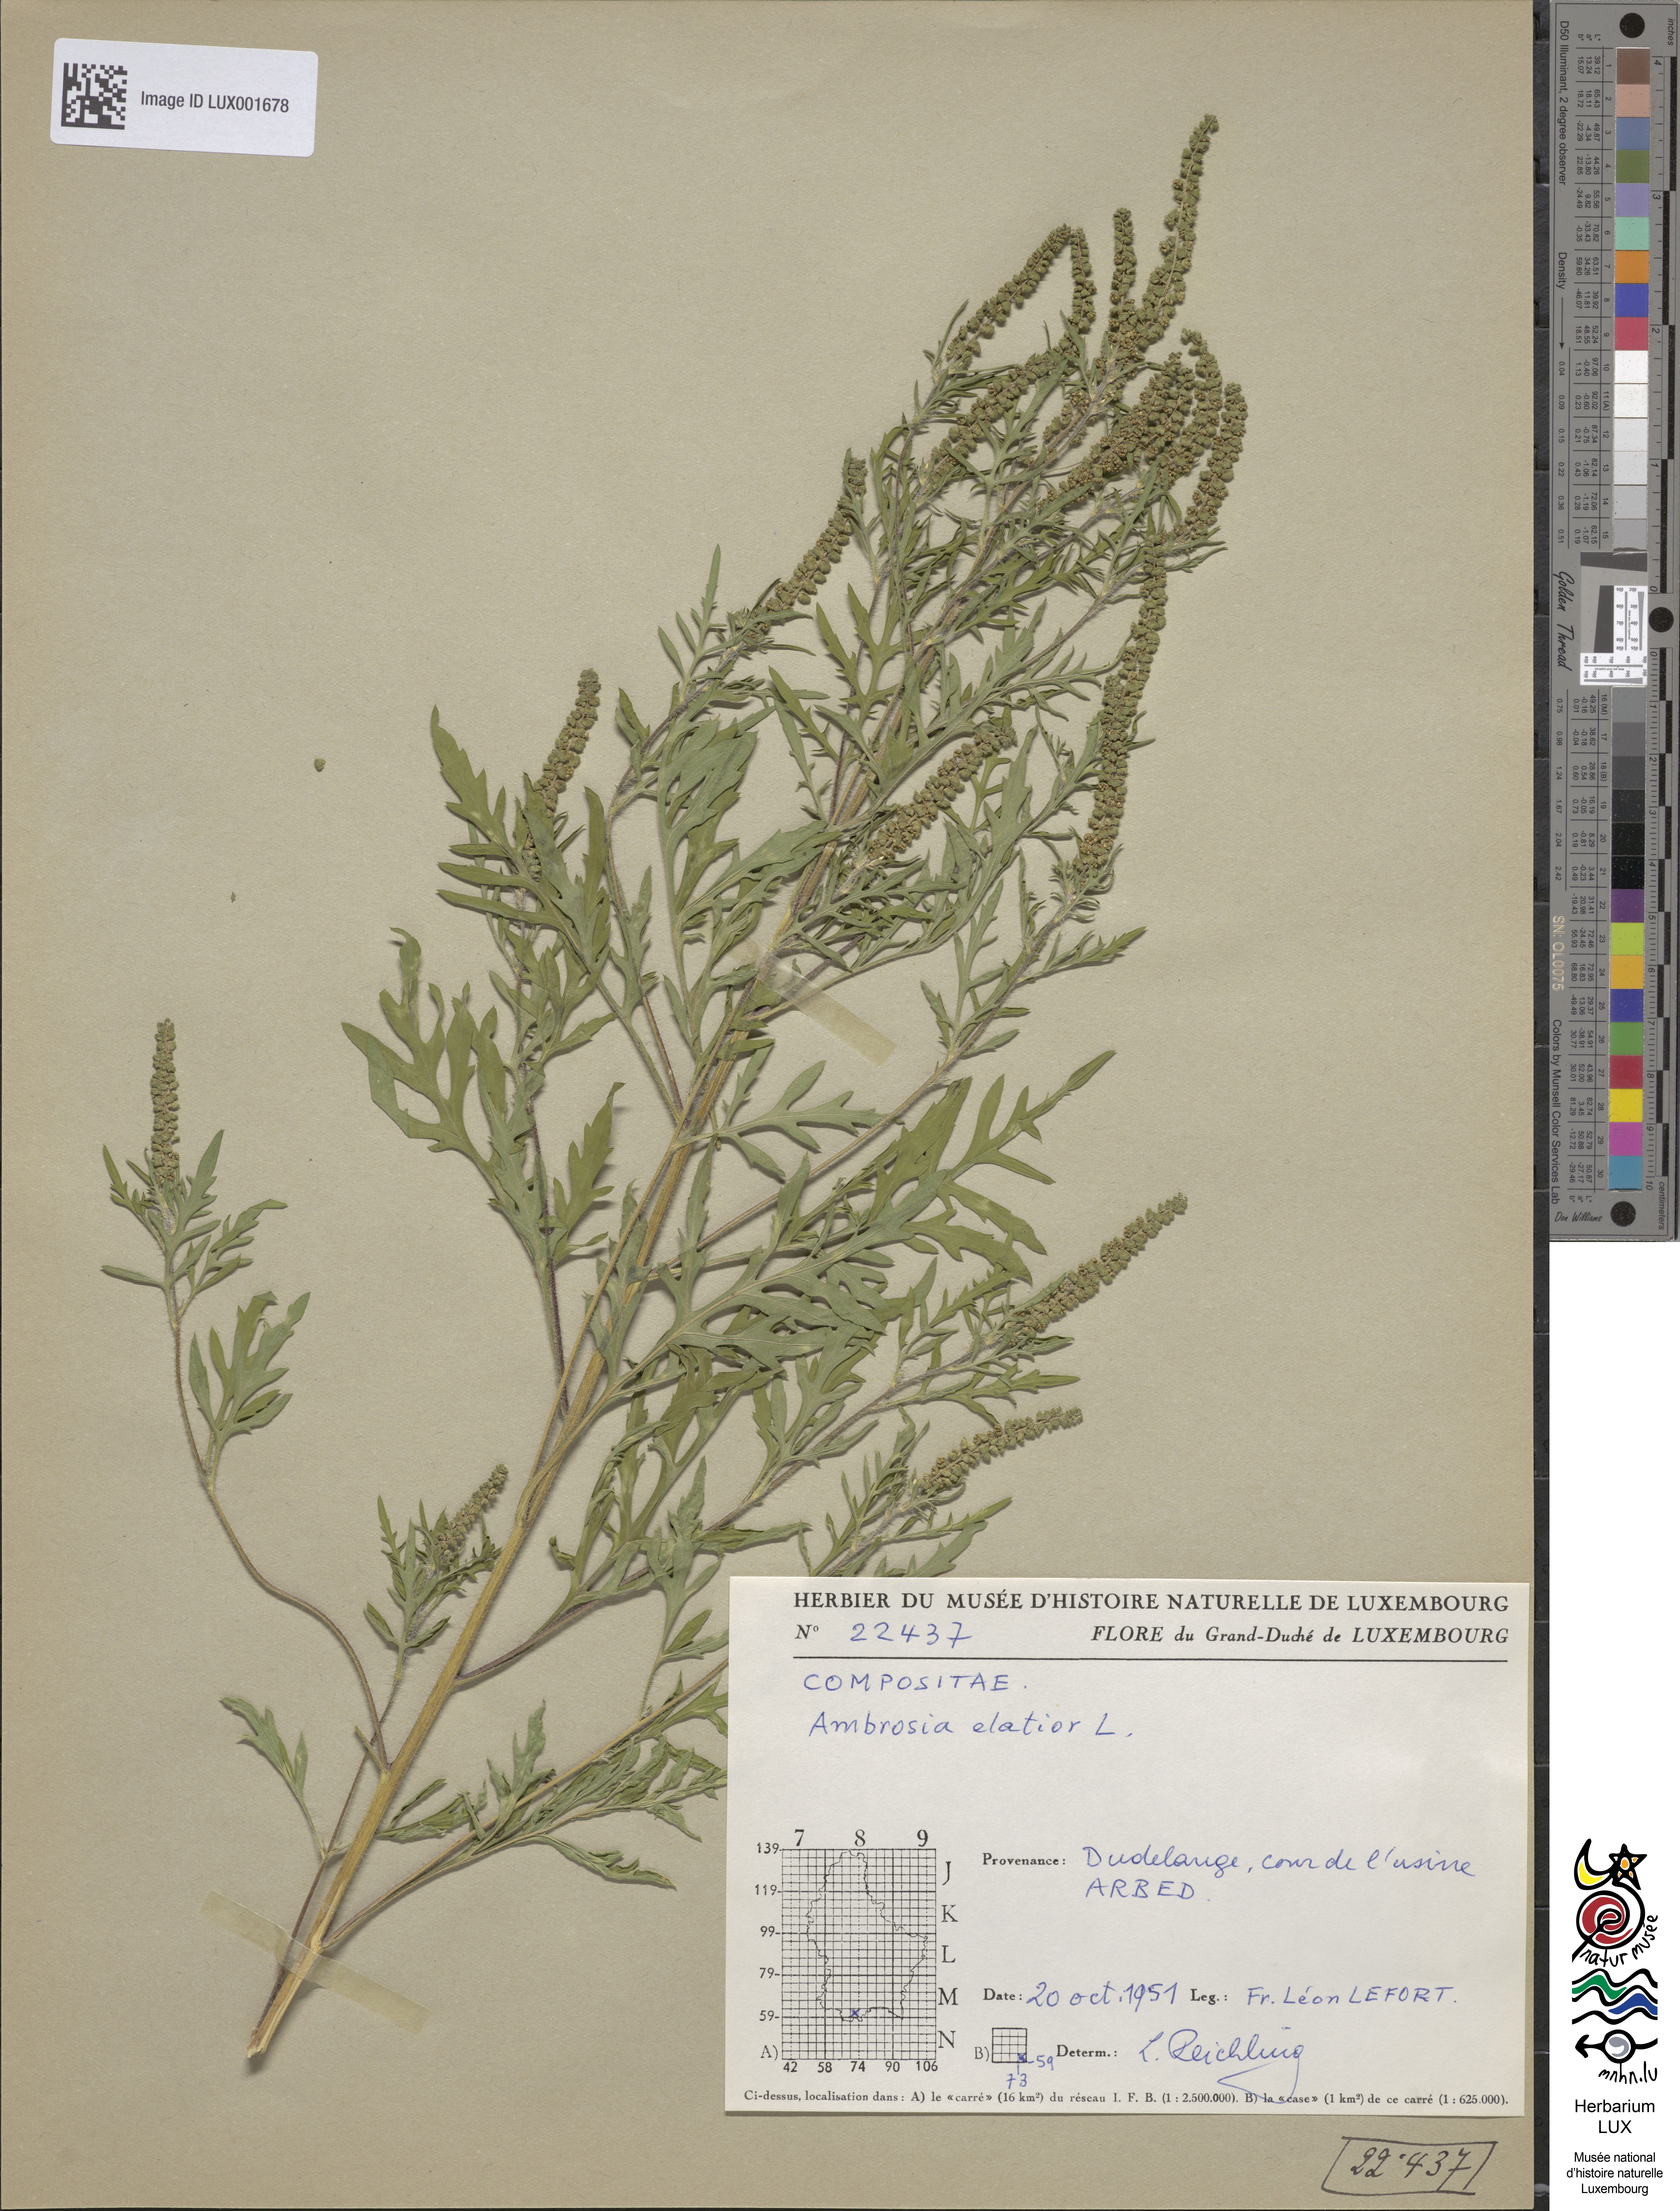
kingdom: Plantae
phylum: Tracheophyta
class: Magnoliopsida
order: Asterales
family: Asteraceae
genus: Ambrosia
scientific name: Ambrosia artemisiifolia
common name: Annual ragweed
